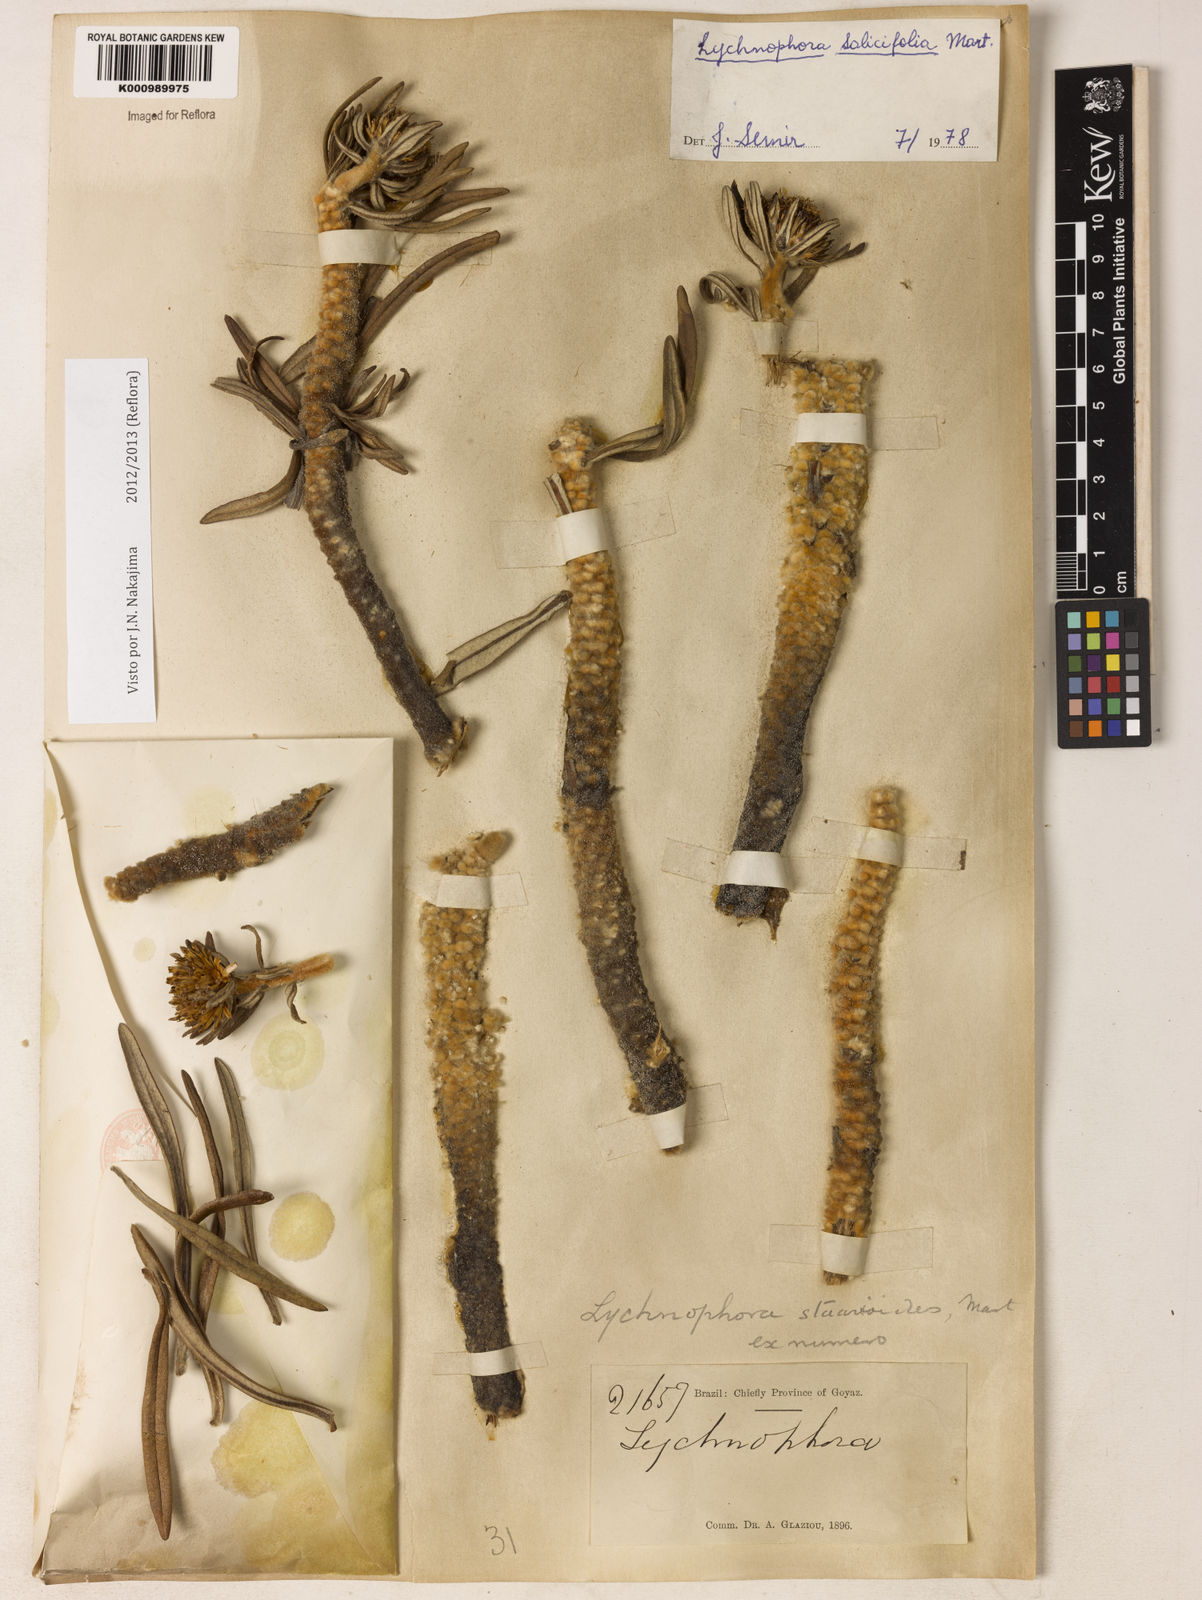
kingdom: Plantae
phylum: Tracheophyta
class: Magnoliopsida
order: Asterales
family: Asteraceae
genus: Lychnophora
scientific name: Lychnophora salicifolia
